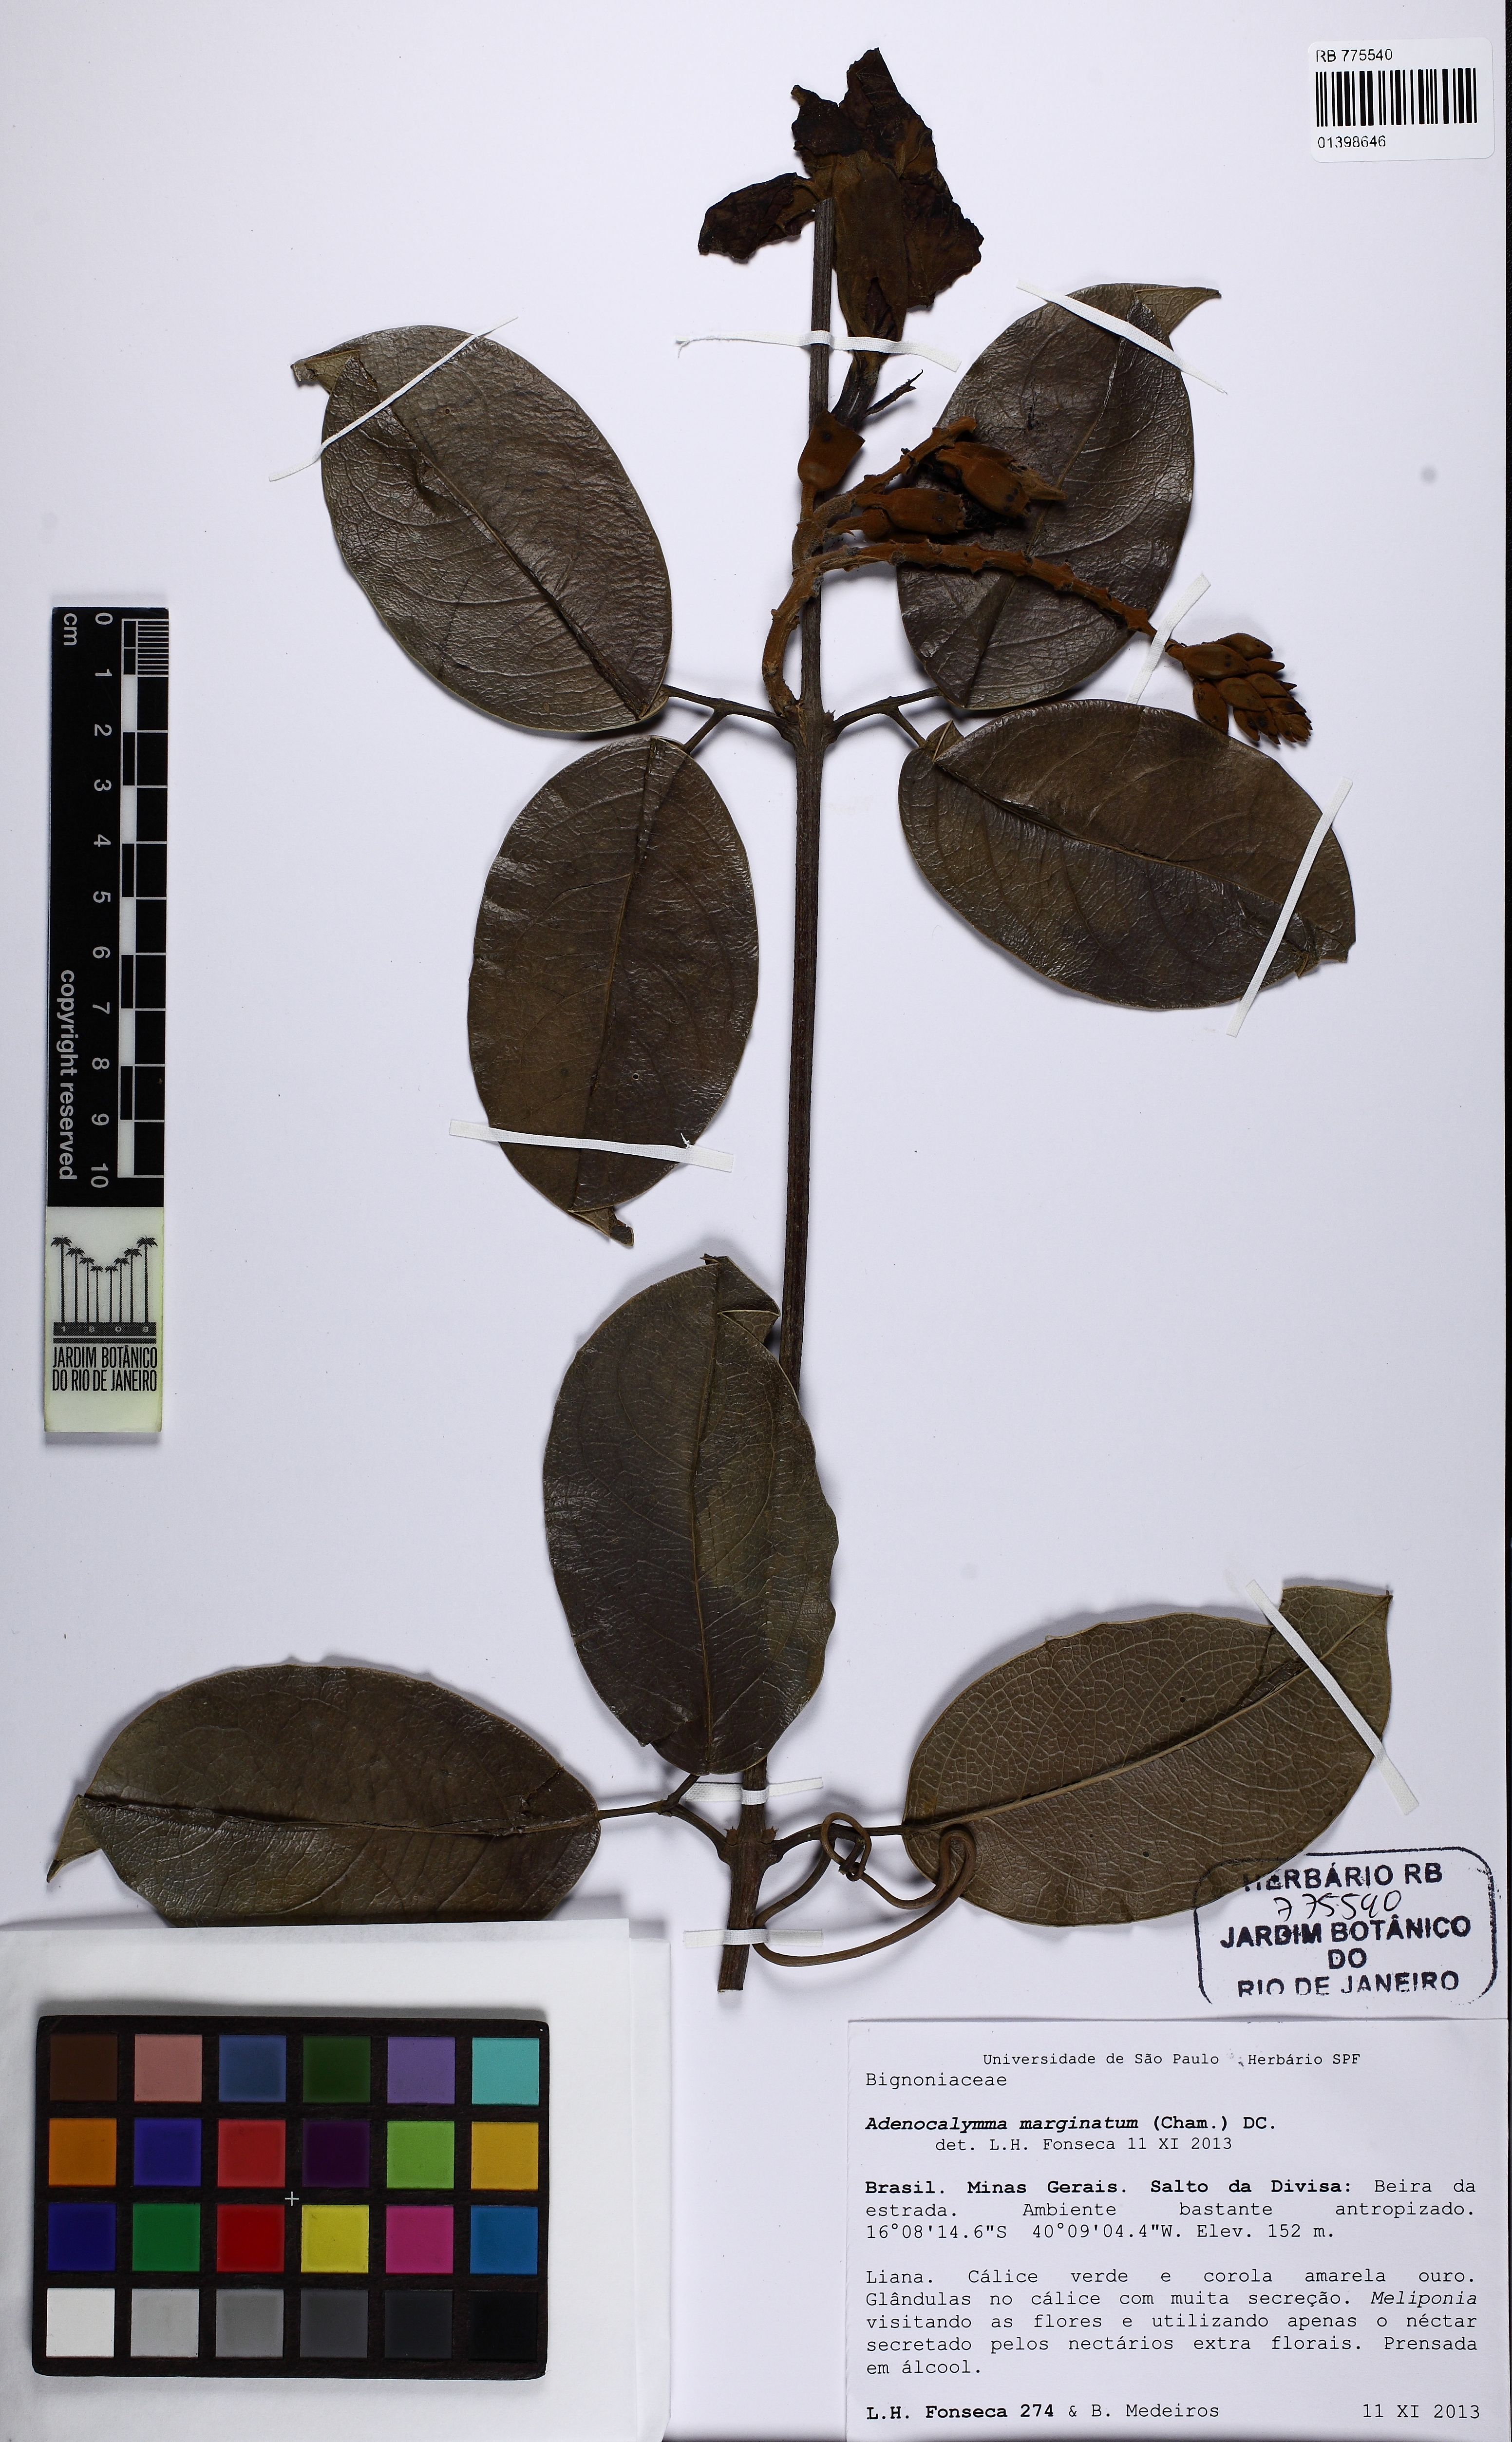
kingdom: Plantae
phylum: Tracheophyta
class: Magnoliopsida
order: Lamiales
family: Bignoniaceae
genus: Adenocalymma
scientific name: Adenocalymma marginatum
